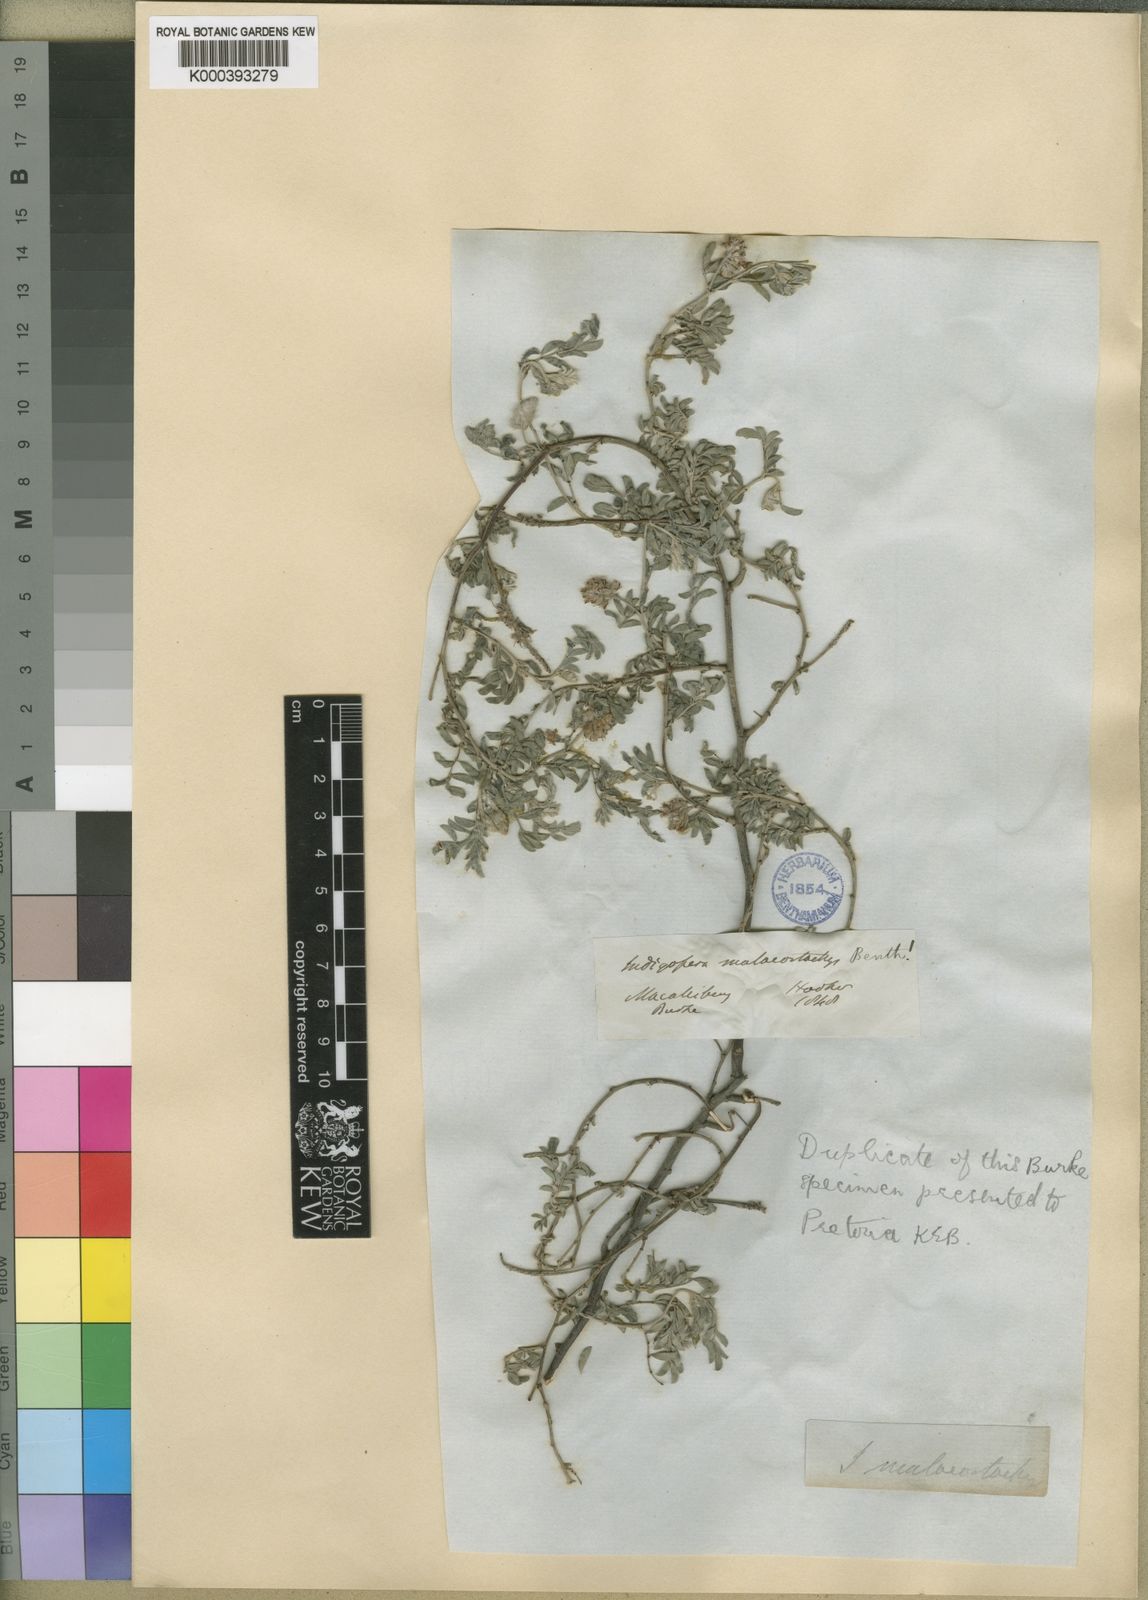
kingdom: Plantae
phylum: Tracheophyta
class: Magnoliopsida
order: Fabales
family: Fabaceae
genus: Indigofera
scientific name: Indigofera melanadenia
